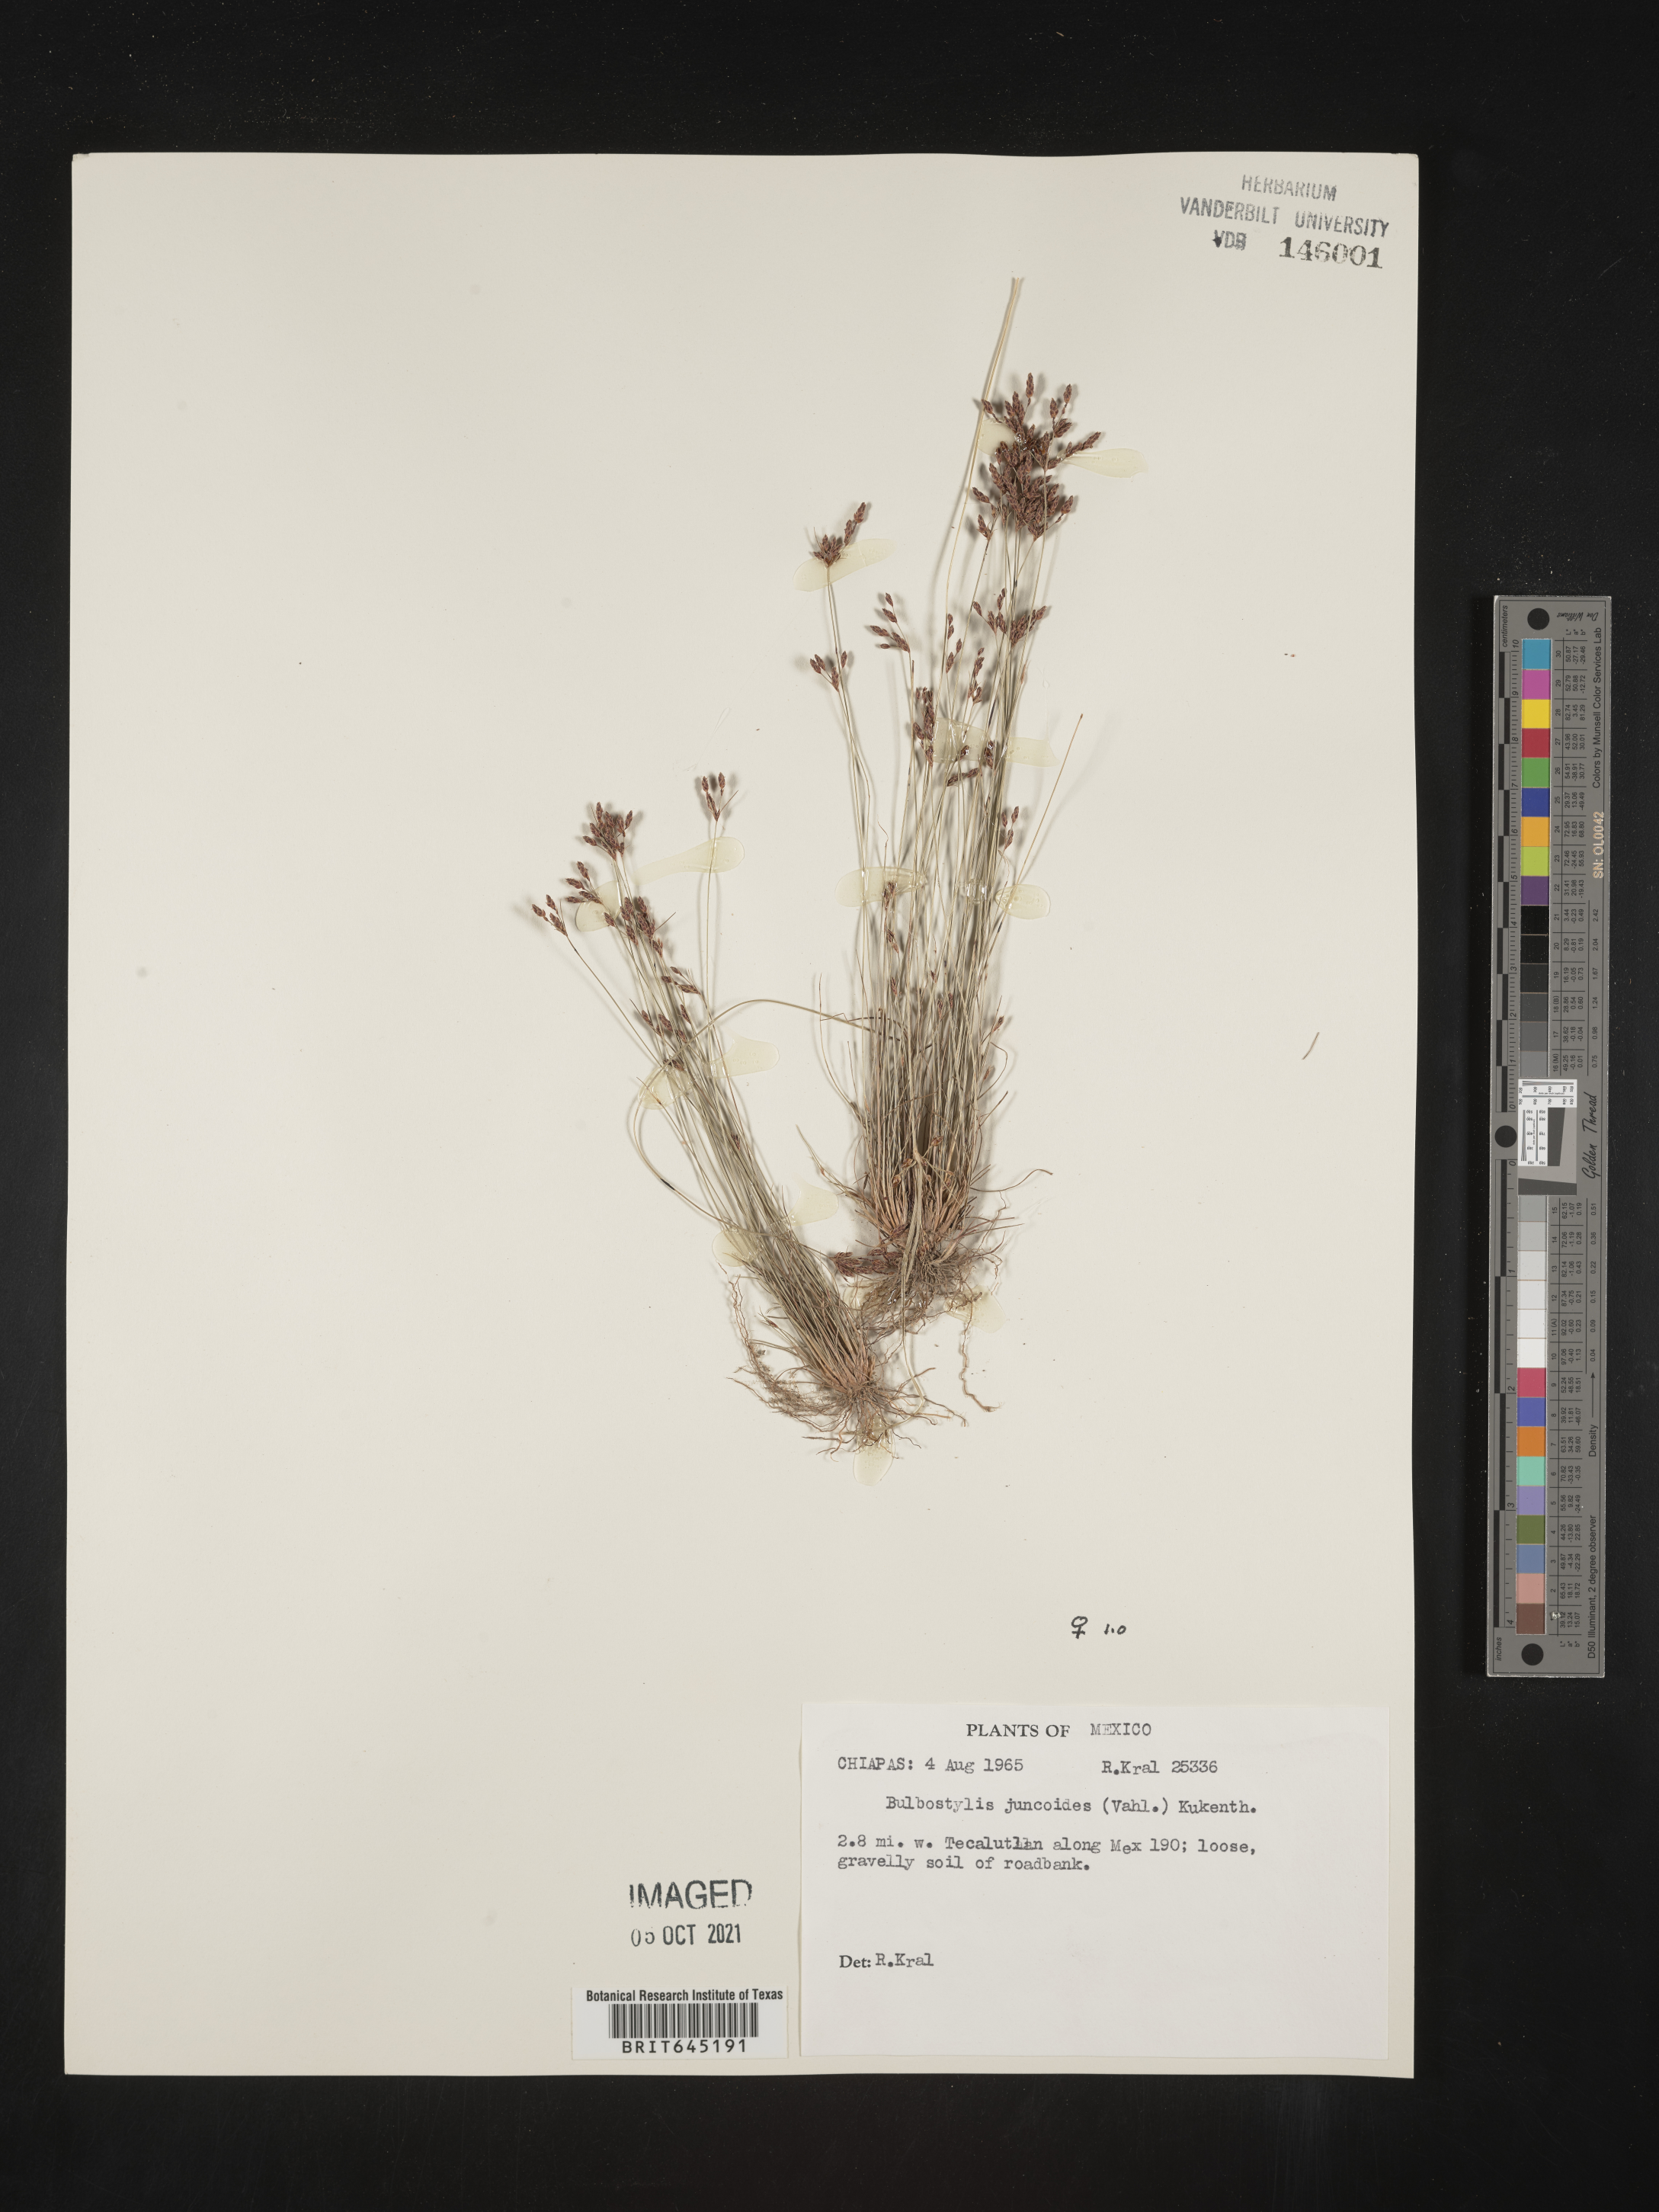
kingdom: Plantae
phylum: Tracheophyta
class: Liliopsida
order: Poales
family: Cyperaceae
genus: Bulbostylis
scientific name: Bulbostylis juncoides
